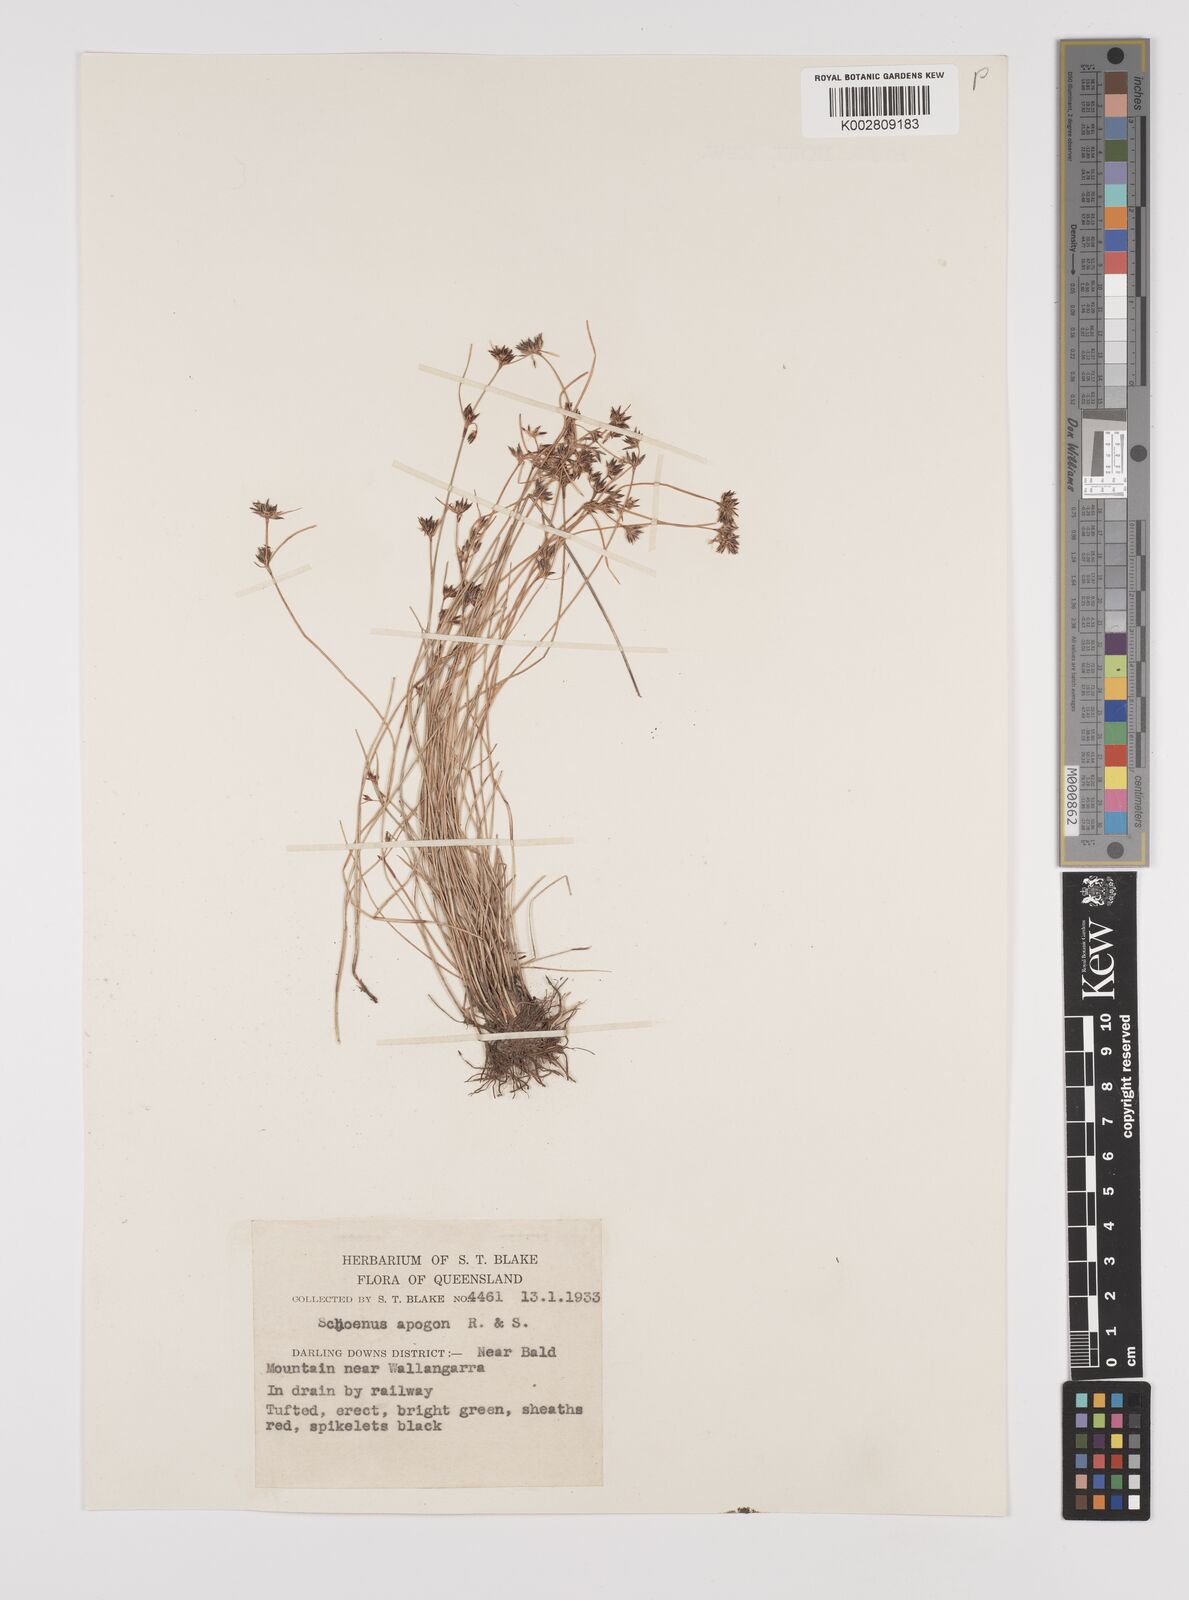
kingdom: Plantae
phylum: Tracheophyta
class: Liliopsida
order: Poales
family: Cyperaceae
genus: Schoenus
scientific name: Schoenus apogon
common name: Smooth bogrush
